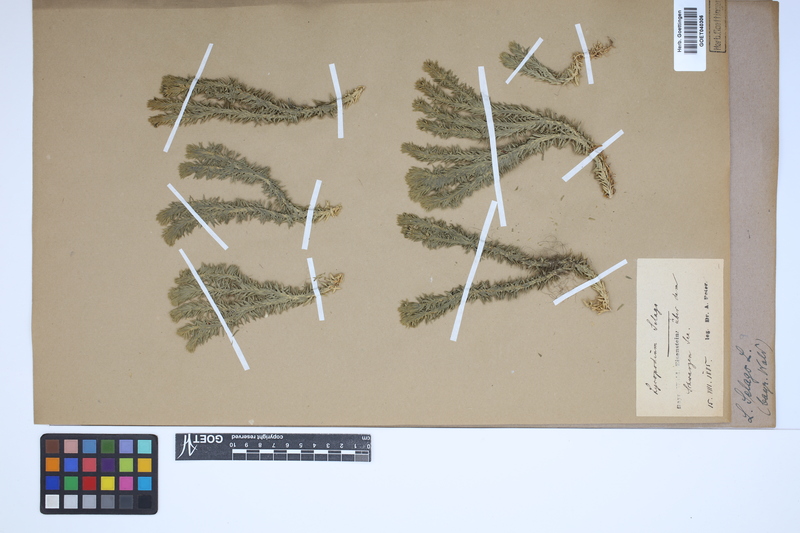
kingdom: Plantae
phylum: Tracheophyta
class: Lycopodiopsida
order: Lycopodiales
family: Lycopodiaceae
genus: Huperzia
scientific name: Huperzia selago
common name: Northern firmoss
